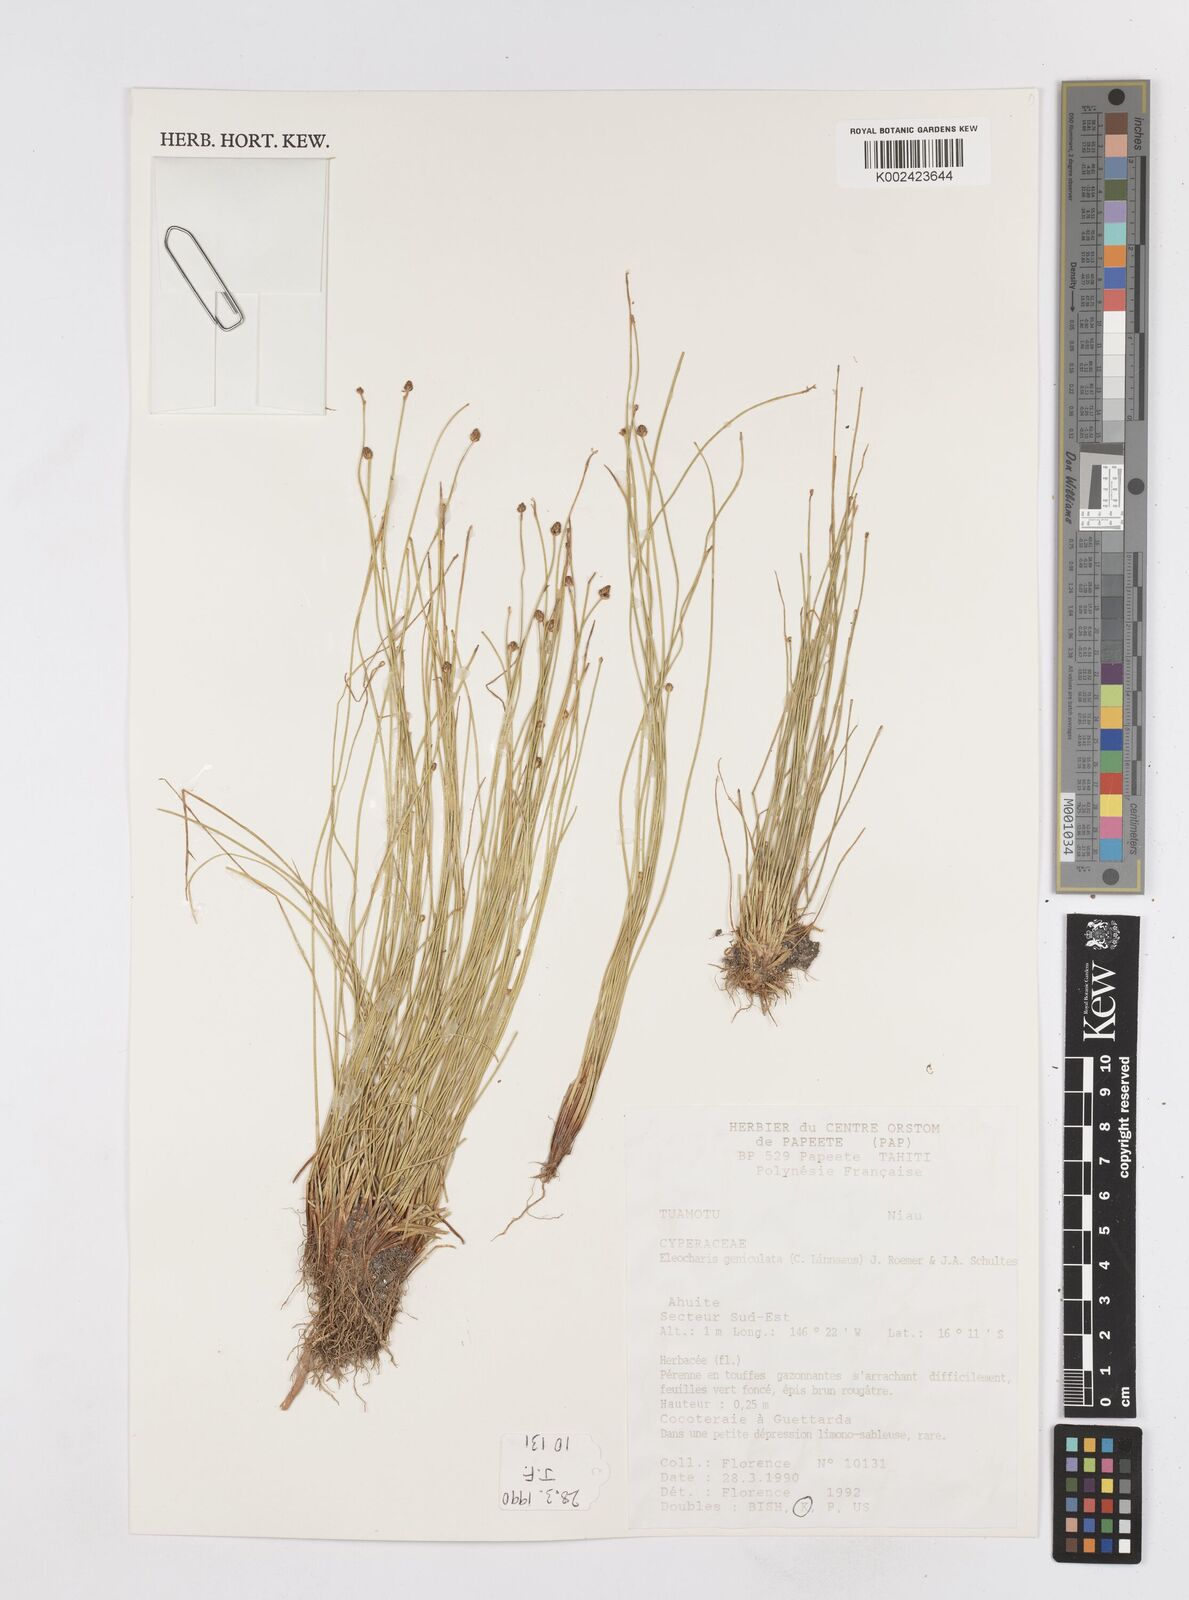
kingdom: Plantae
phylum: Tracheophyta
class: Liliopsida
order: Poales
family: Cyperaceae
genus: Eleocharis
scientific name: Eleocharis geniculata
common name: Canada spikesedge
